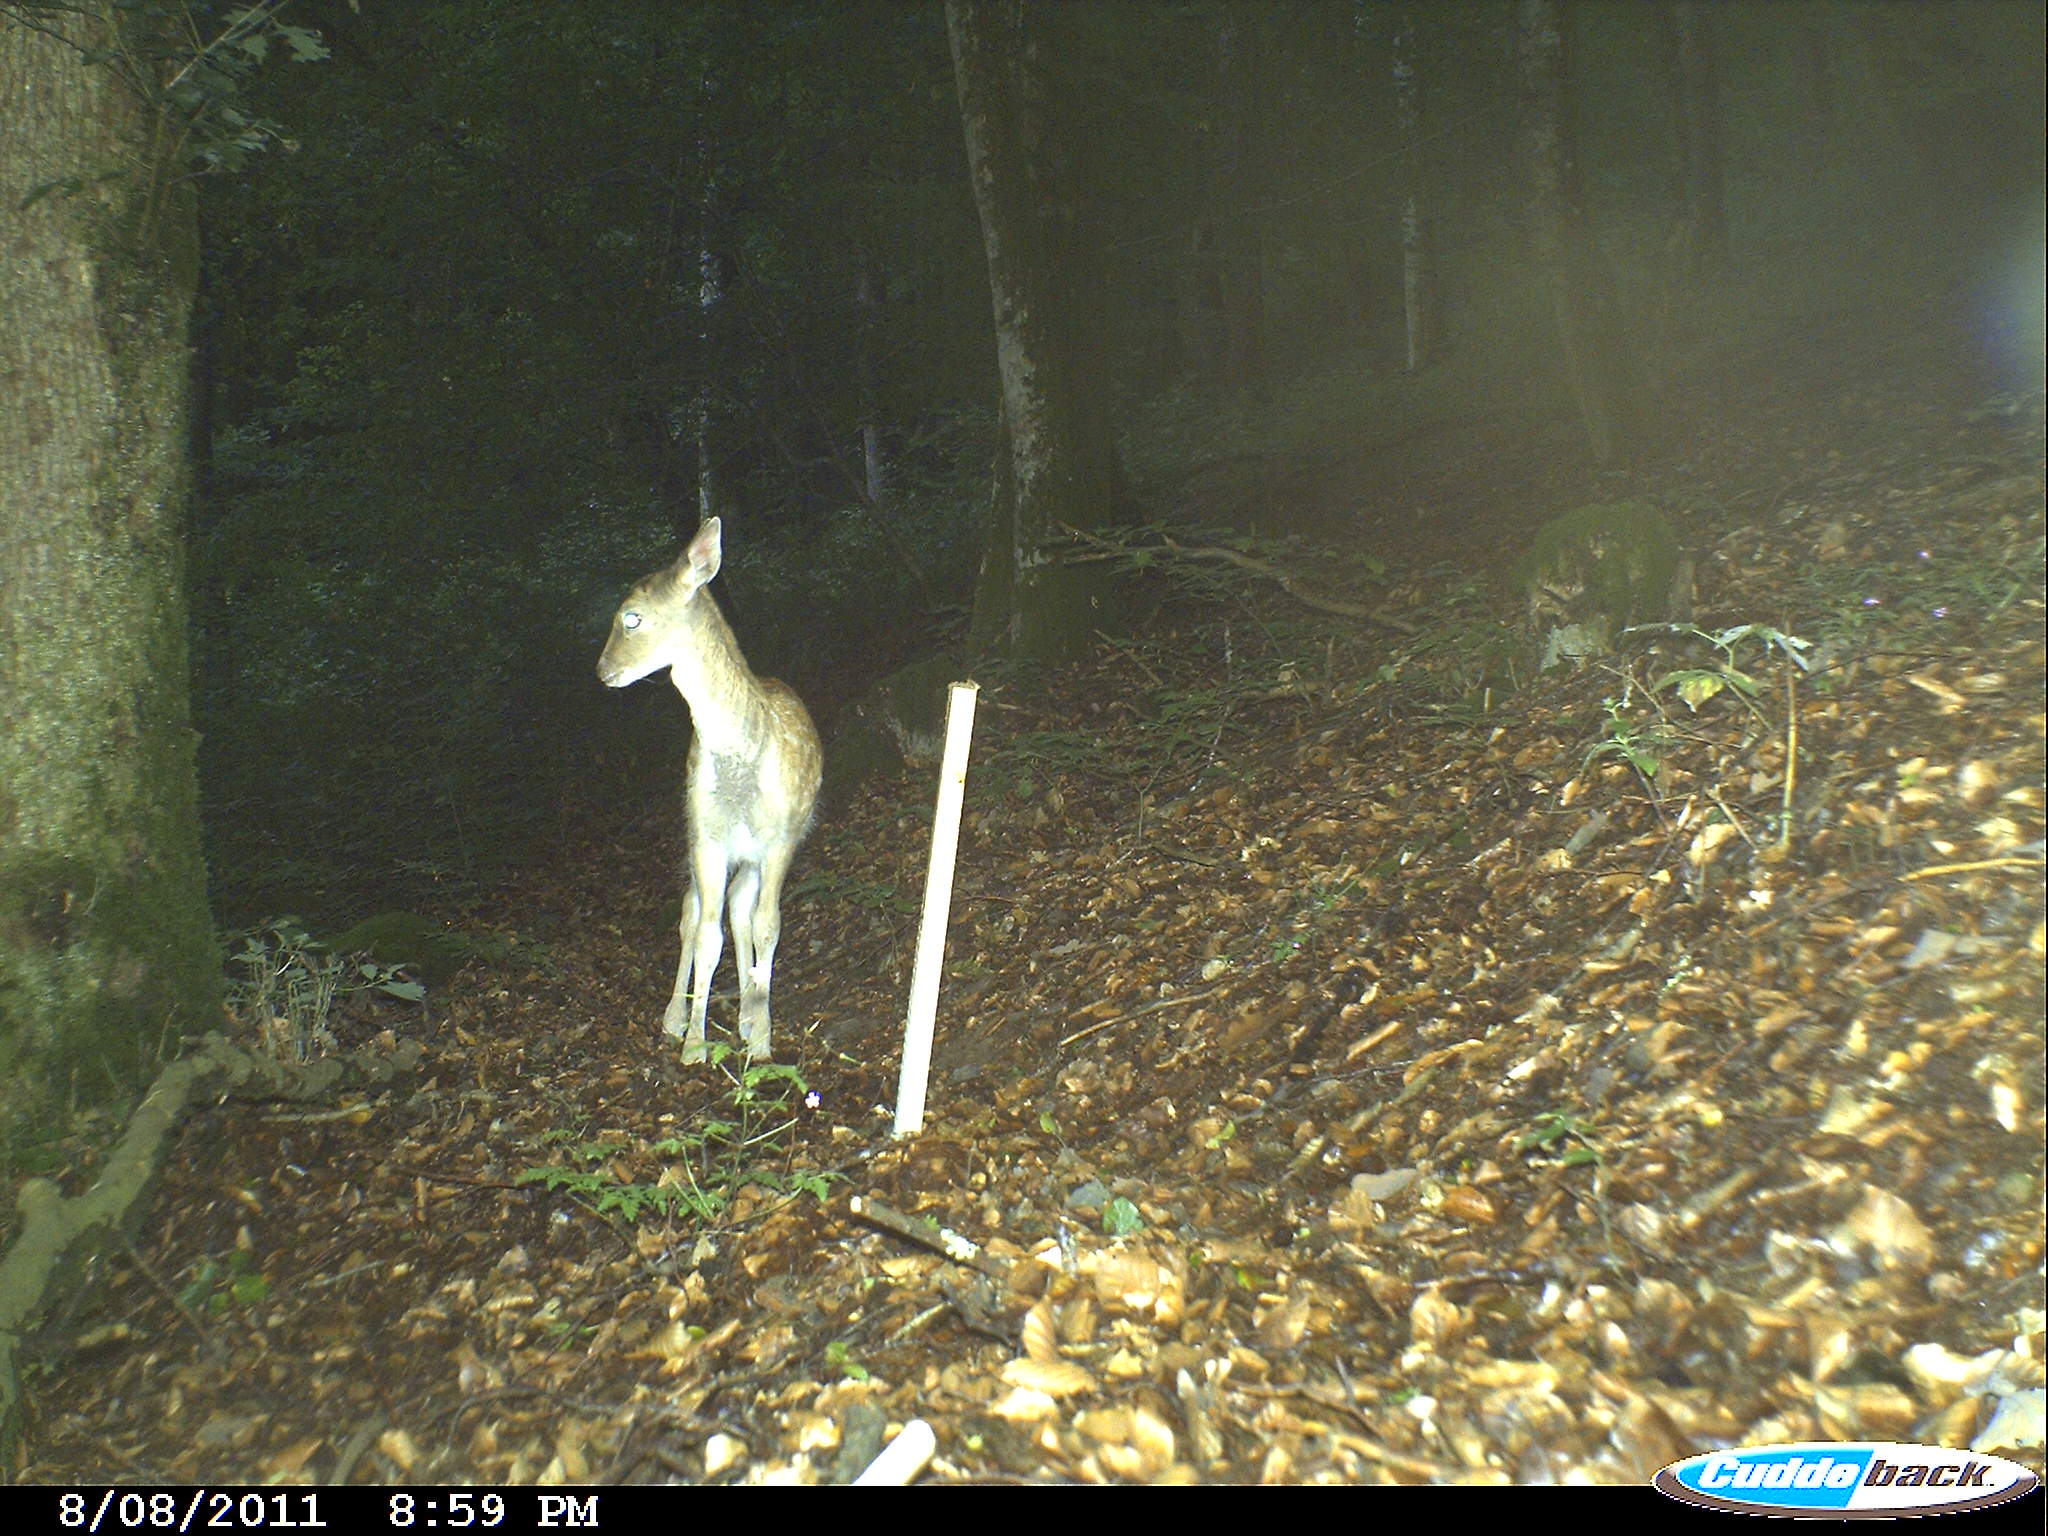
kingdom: Animalia
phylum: Chordata
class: Mammalia
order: Artiodactyla
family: Cervidae
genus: Dama
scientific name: Dama dama
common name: Fallow deer
